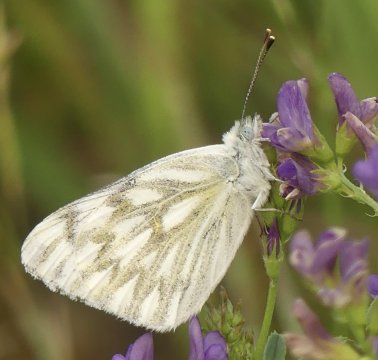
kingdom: Animalia
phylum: Arthropoda
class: Insecta
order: Lepidoptera
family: Pieridae
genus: Pontia
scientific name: Pontia occidentalis
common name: Western White
